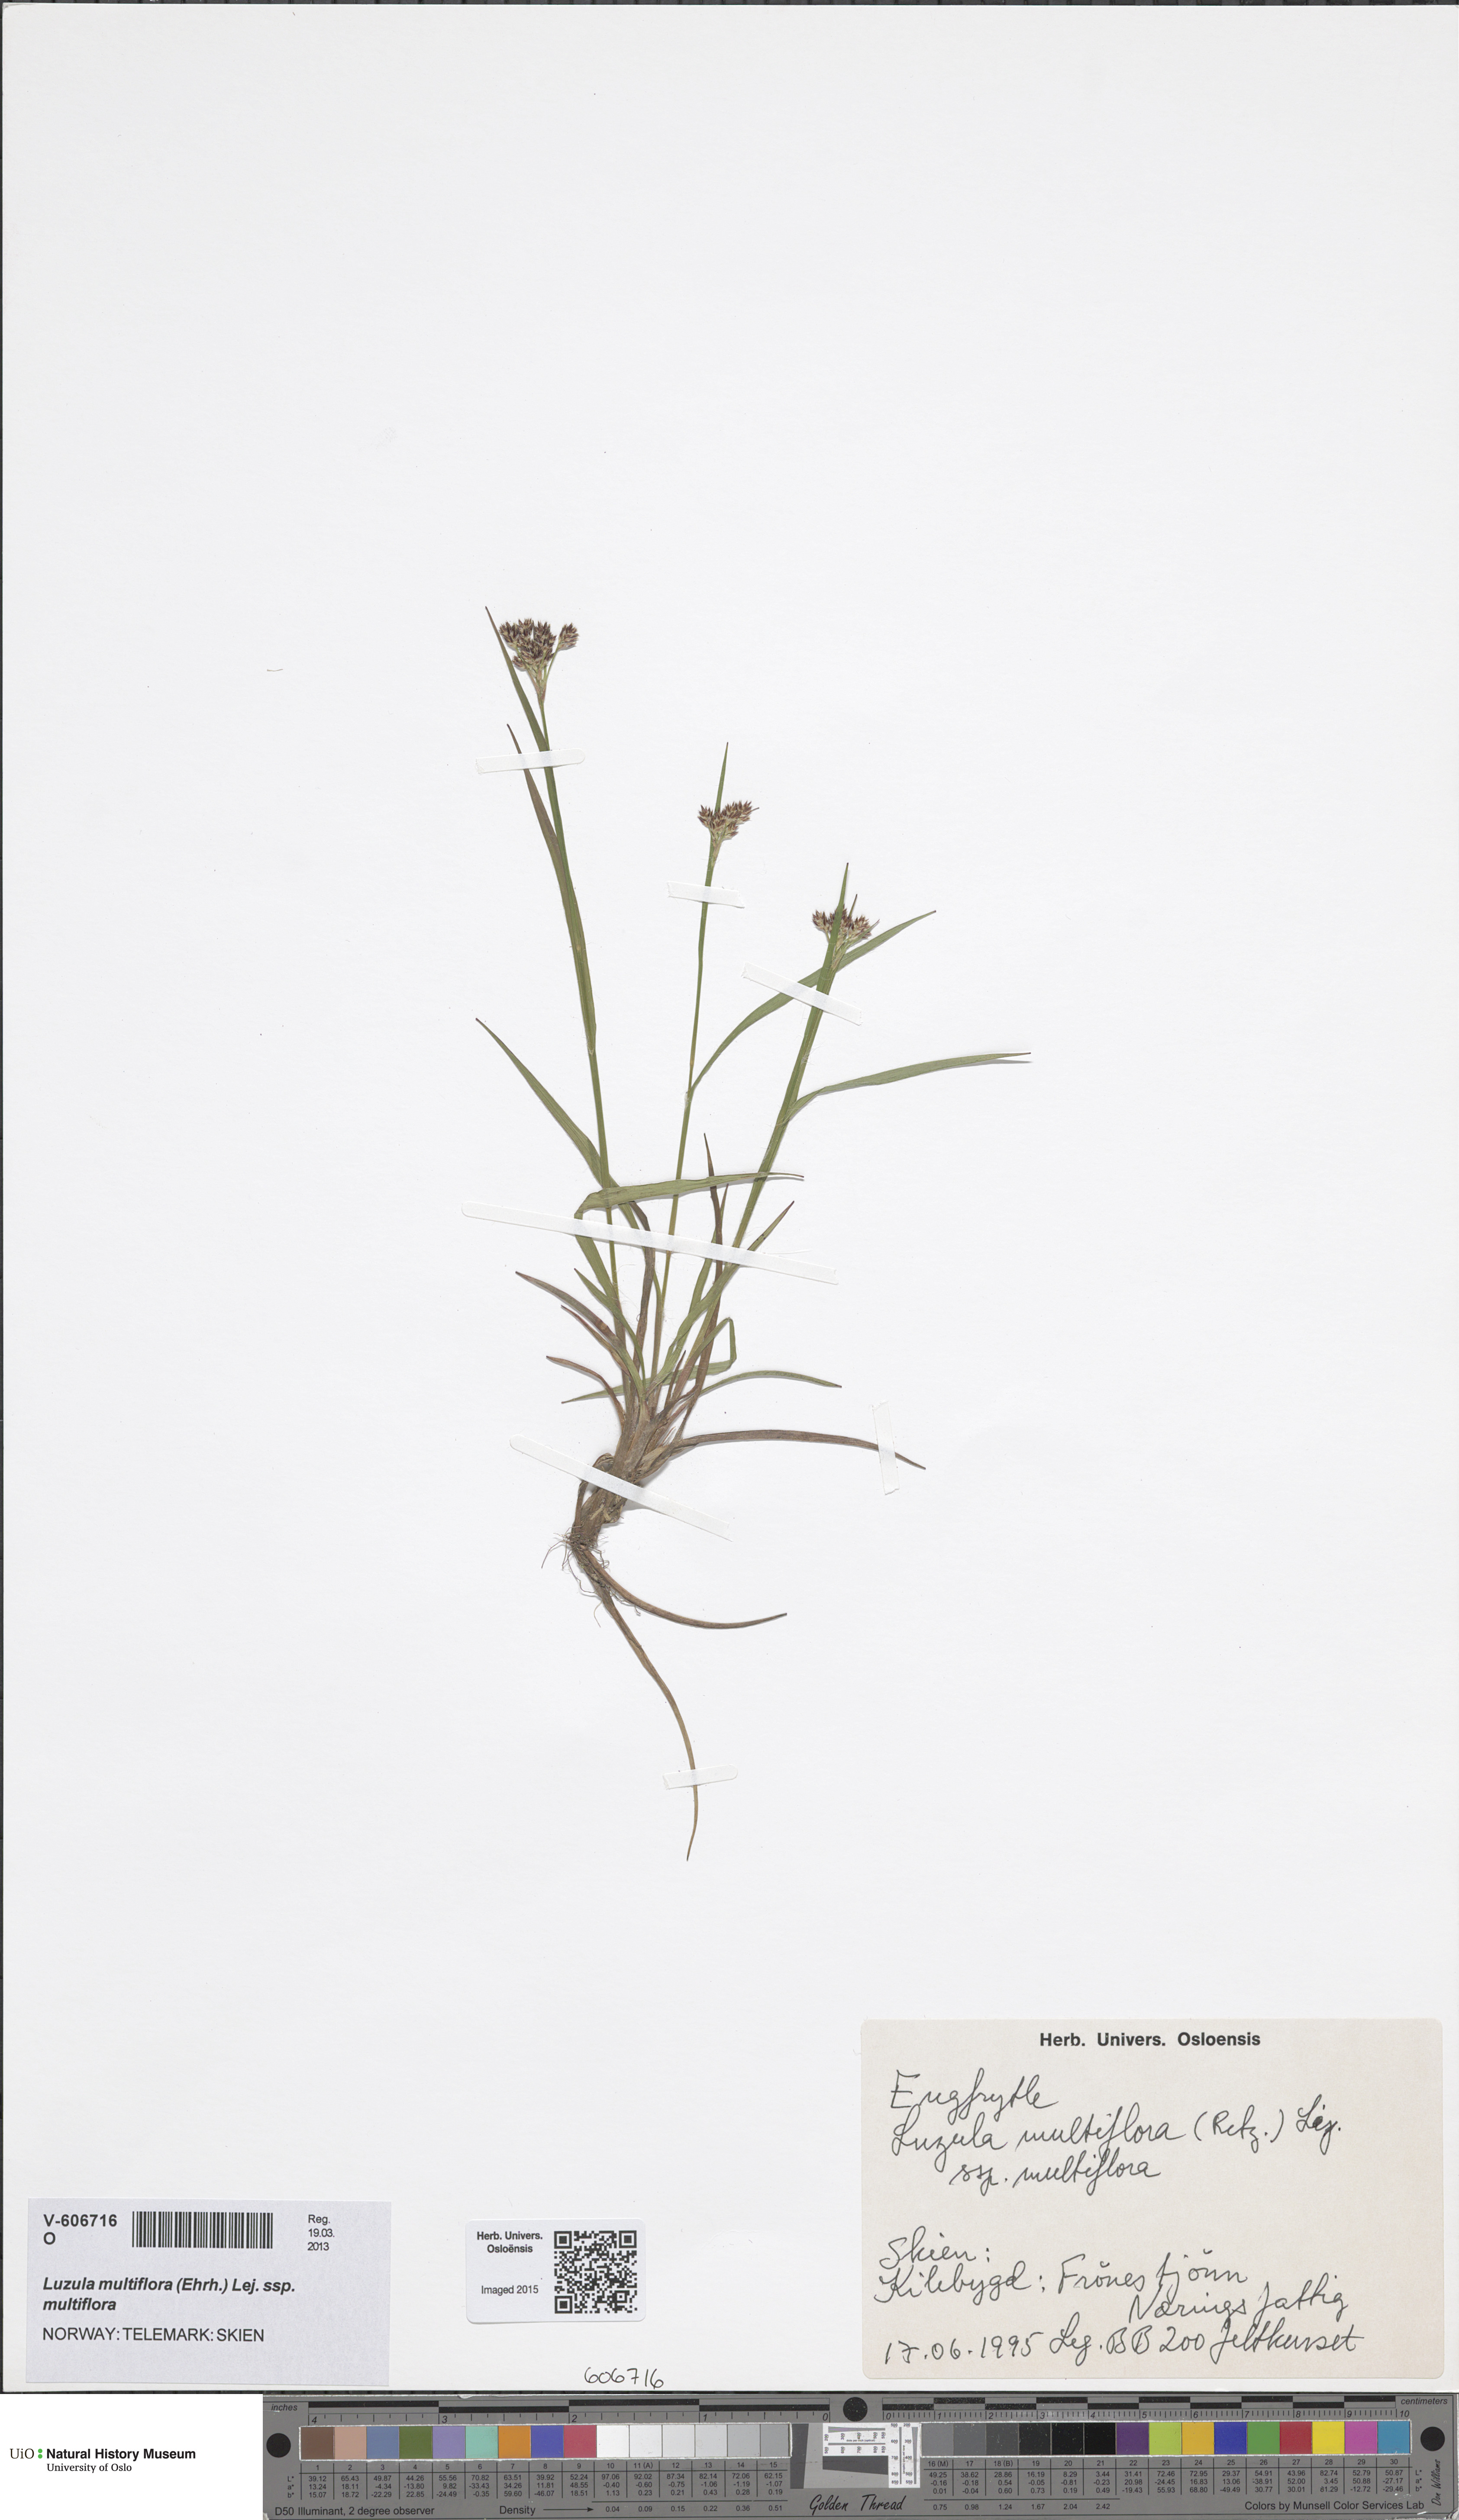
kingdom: Plantae
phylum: Tracheophyta
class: Liliopsida
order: Poales
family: Juncaceae
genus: Luzula
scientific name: Luzula multiflora
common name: Heath wood-rush
